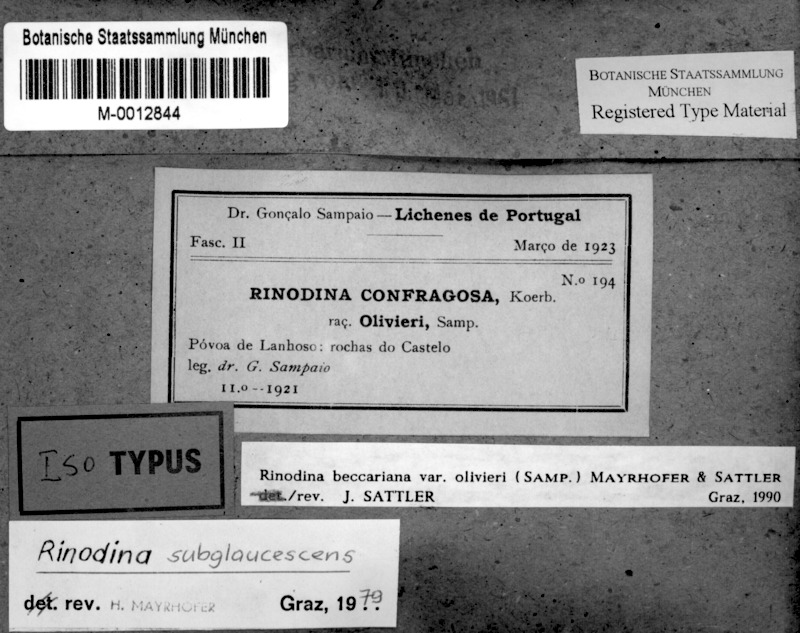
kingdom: Fungi
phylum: Ascomycota
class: Lecanoromycetes
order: Caliciales
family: Physciaceae
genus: Rinodina
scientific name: Rinodina santoriensis
